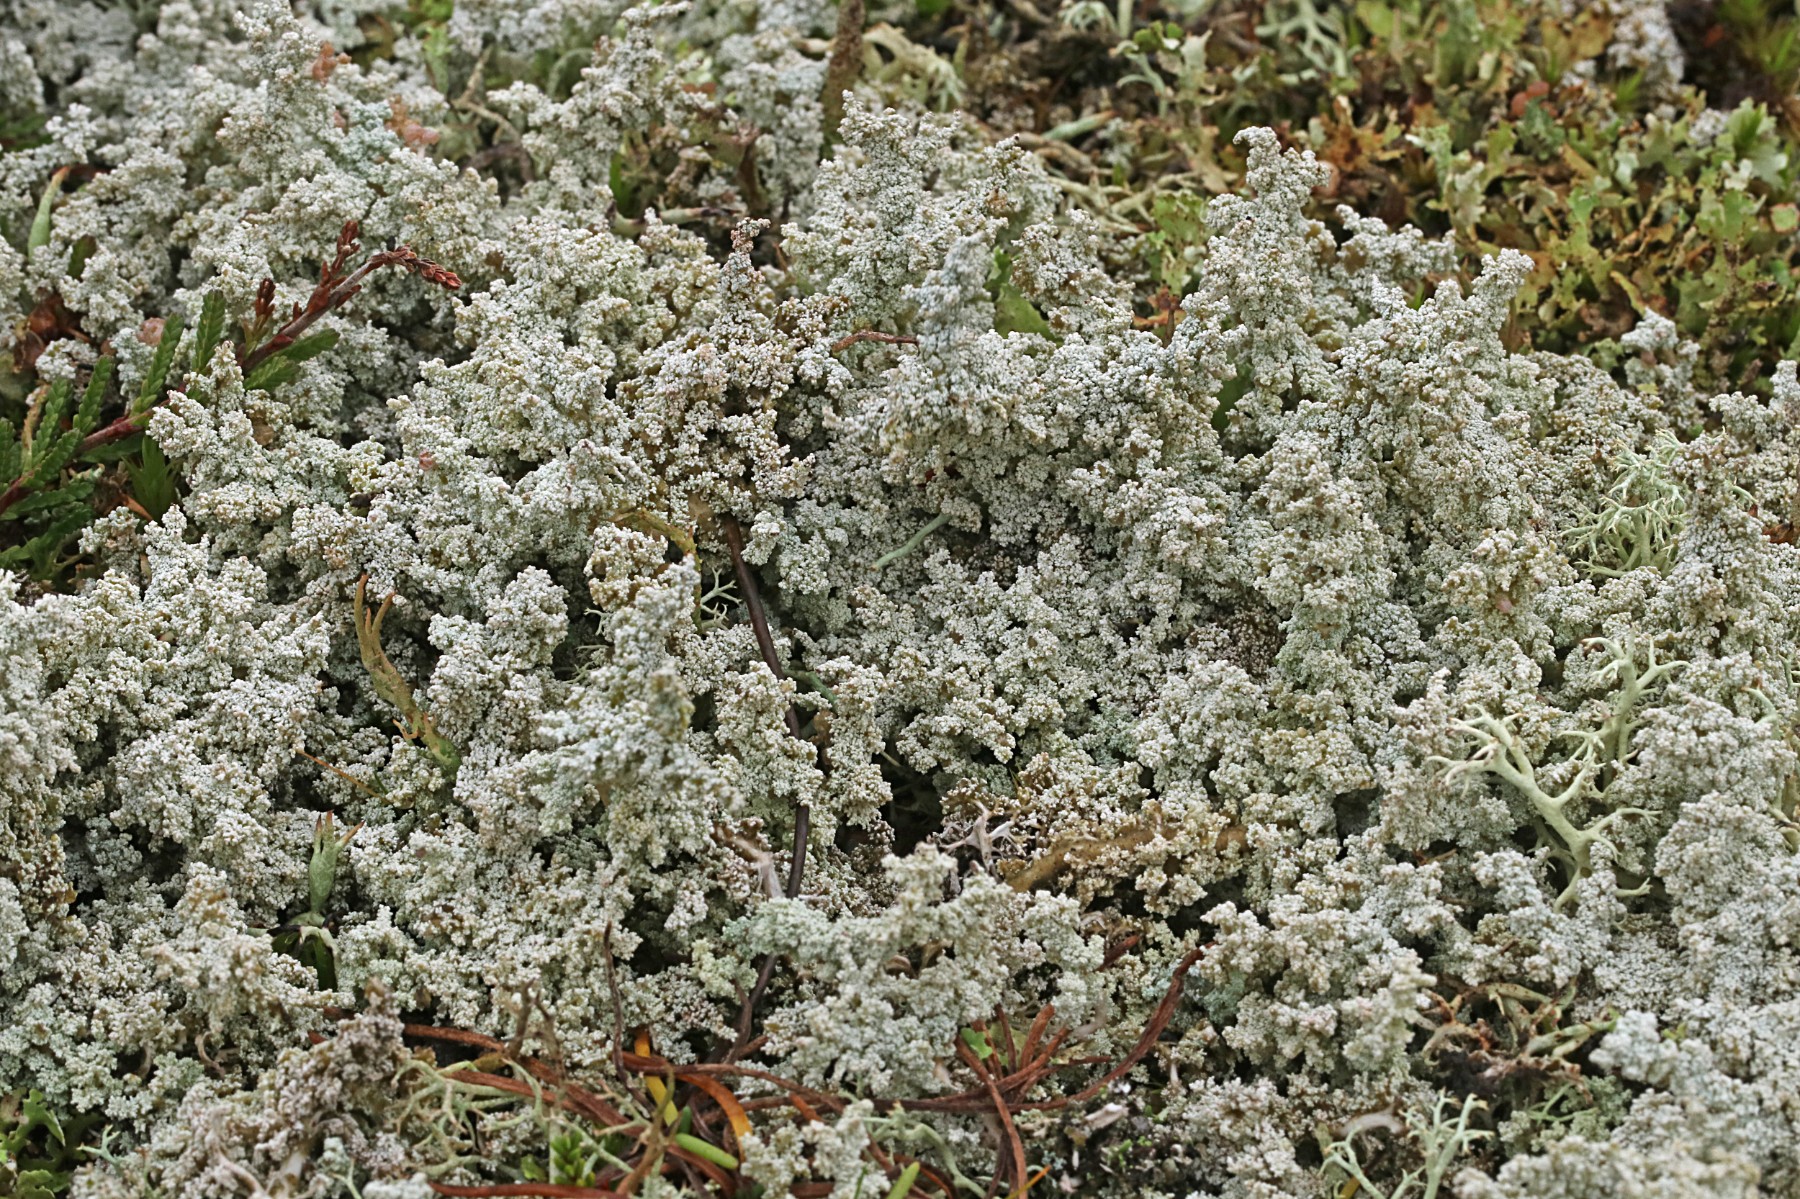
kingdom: Fungi
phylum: Ascomycota
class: Lecanoromycetes
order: Lecanorales
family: Stereocaulaceae
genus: Stereocaulon
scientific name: Stereocaulon paschale
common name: rank korallav
